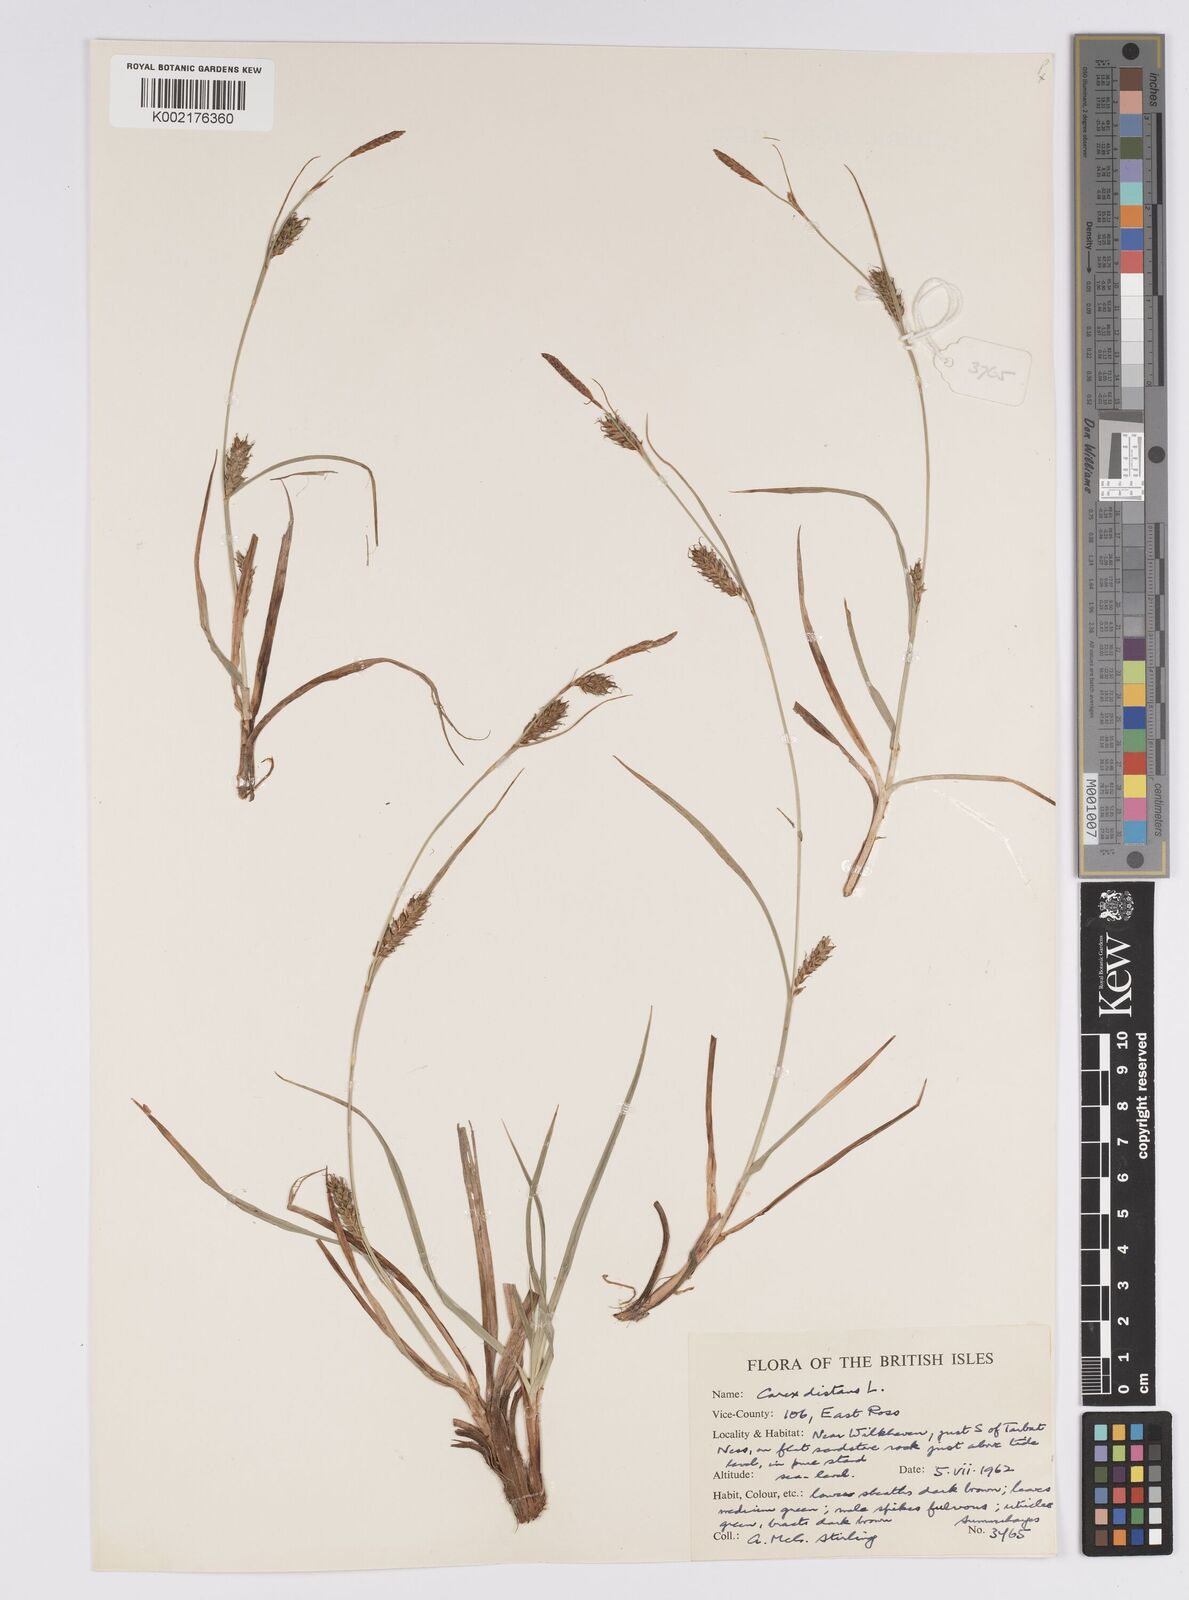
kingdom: Plantae
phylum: Tracheophyta
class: Liliopsida
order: Poales
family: Cyperaceae
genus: Carex
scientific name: Carex distans
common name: Distant sedge
